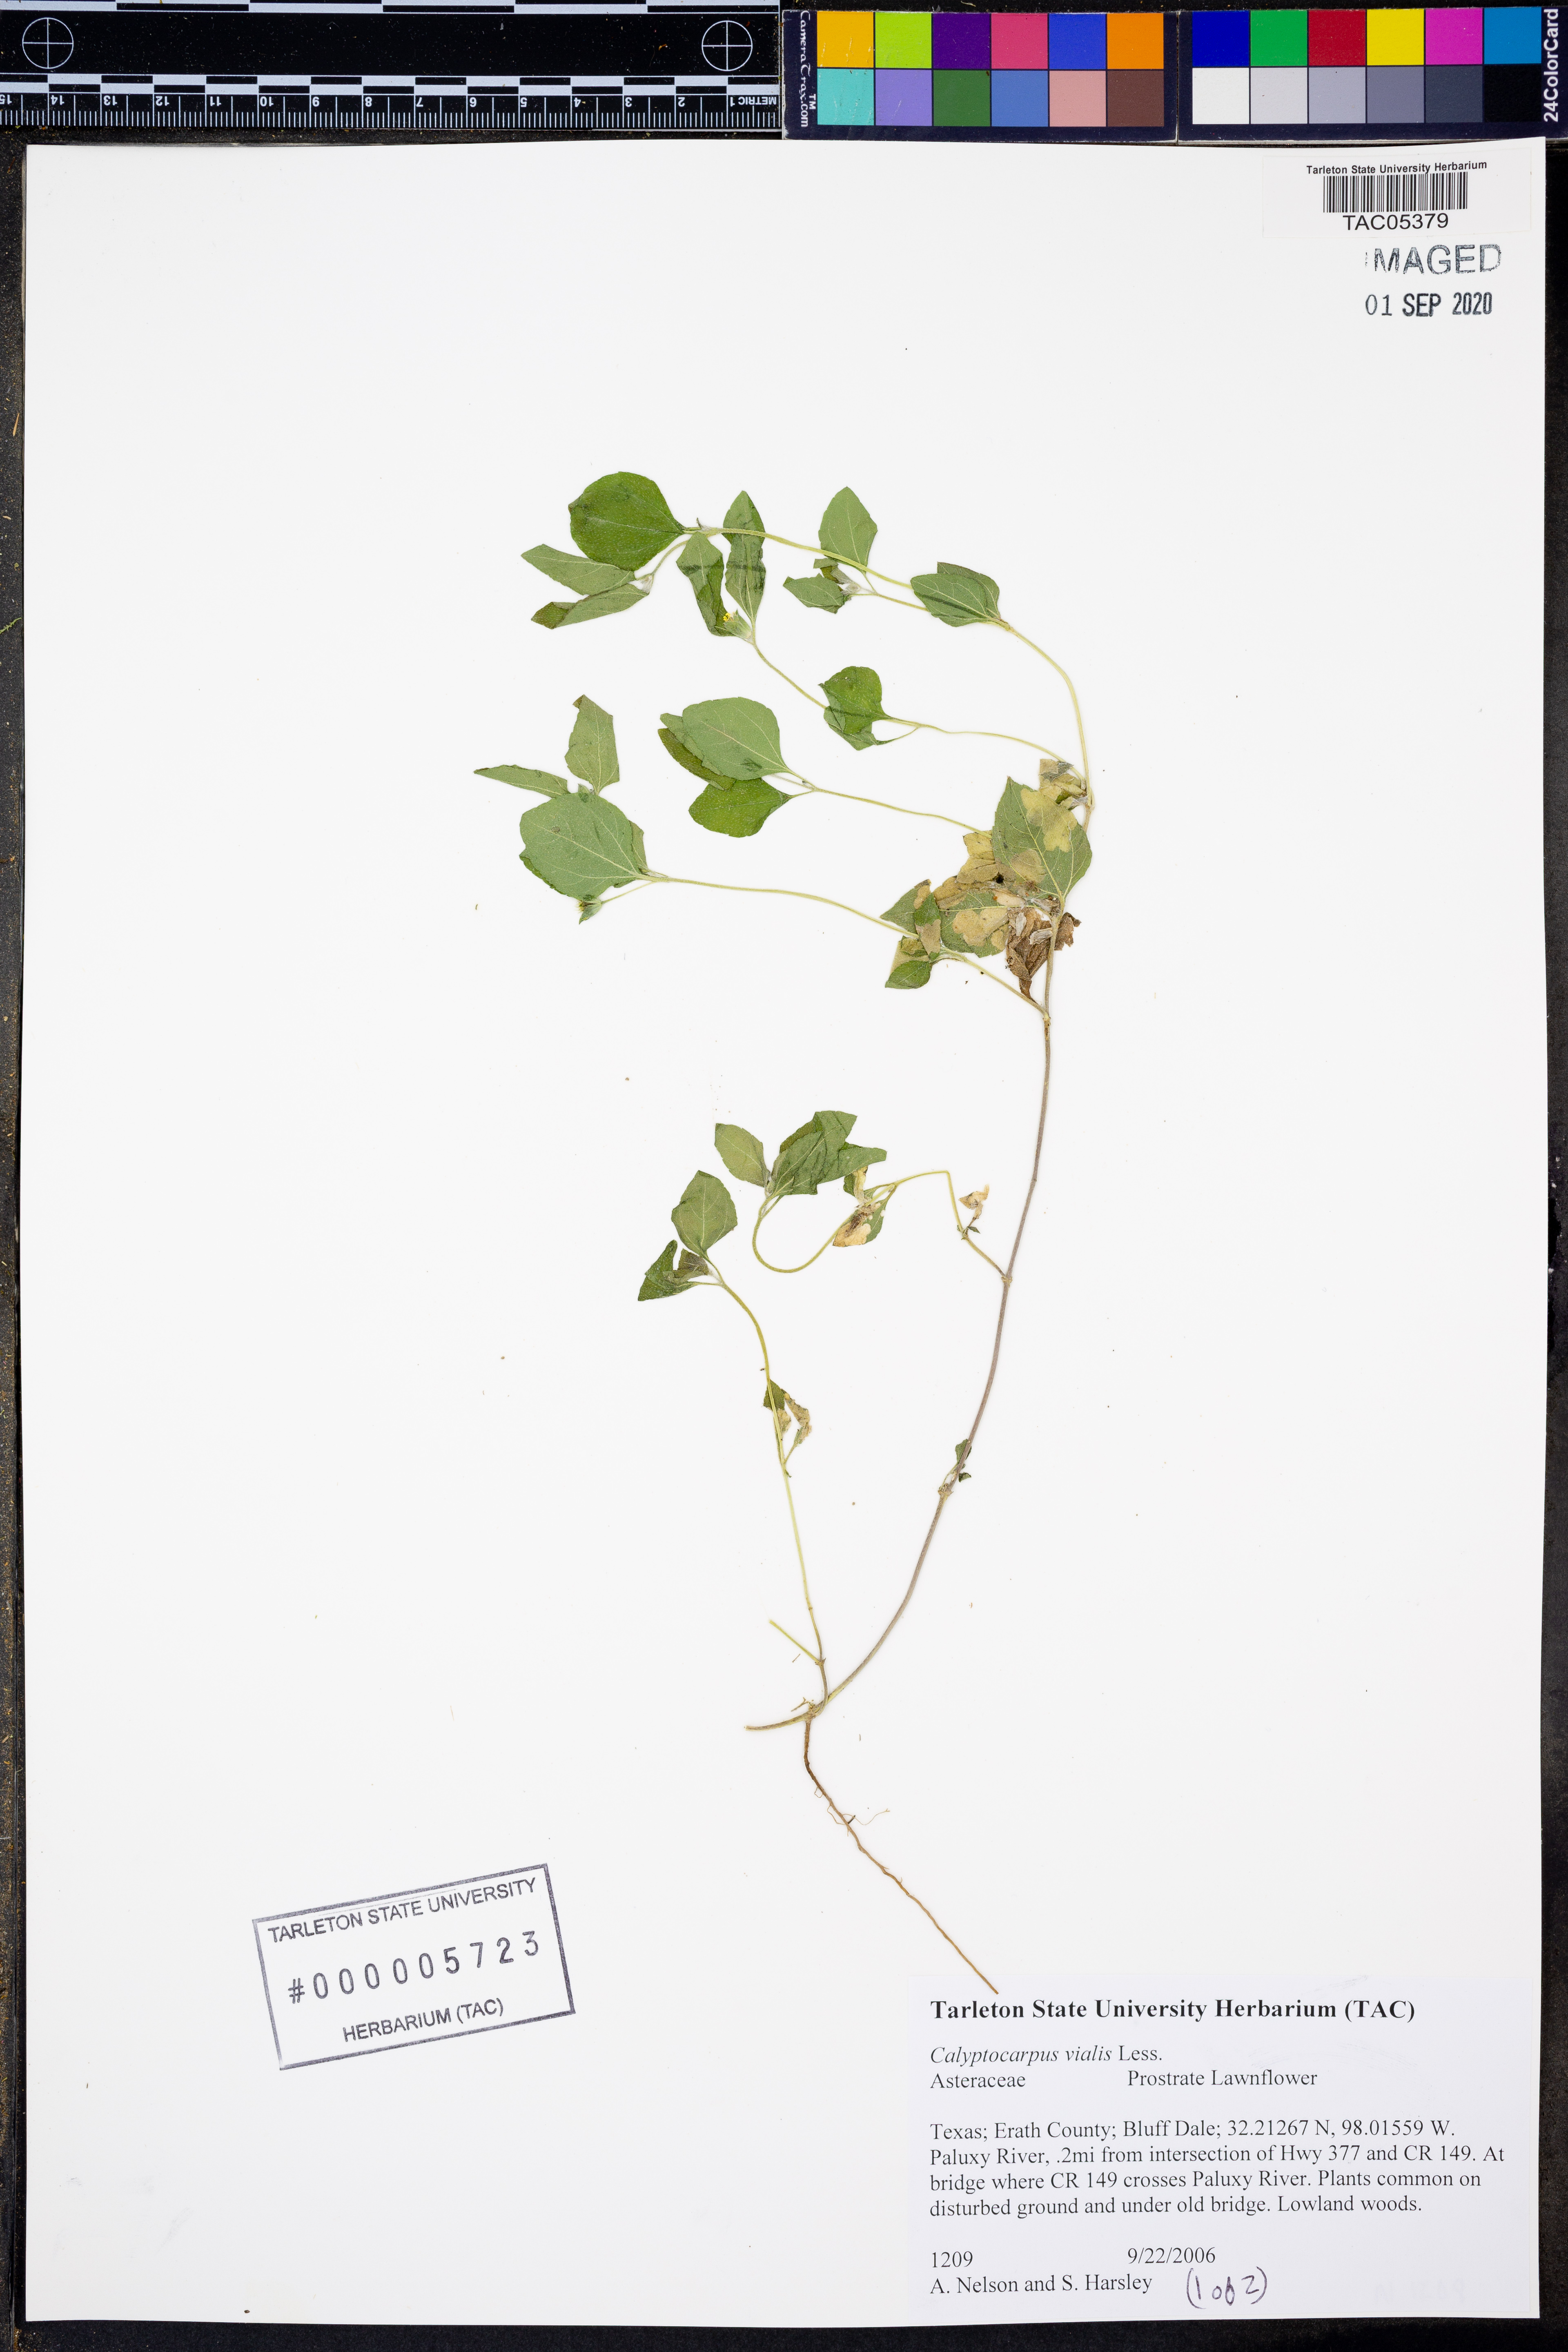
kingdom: Plantae
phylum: Tracheophyta
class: Magnoliopsida
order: Asterales
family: Asteraceae
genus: Calyptocarpus
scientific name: Calyptocarpus vialis
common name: Straggler daisy
